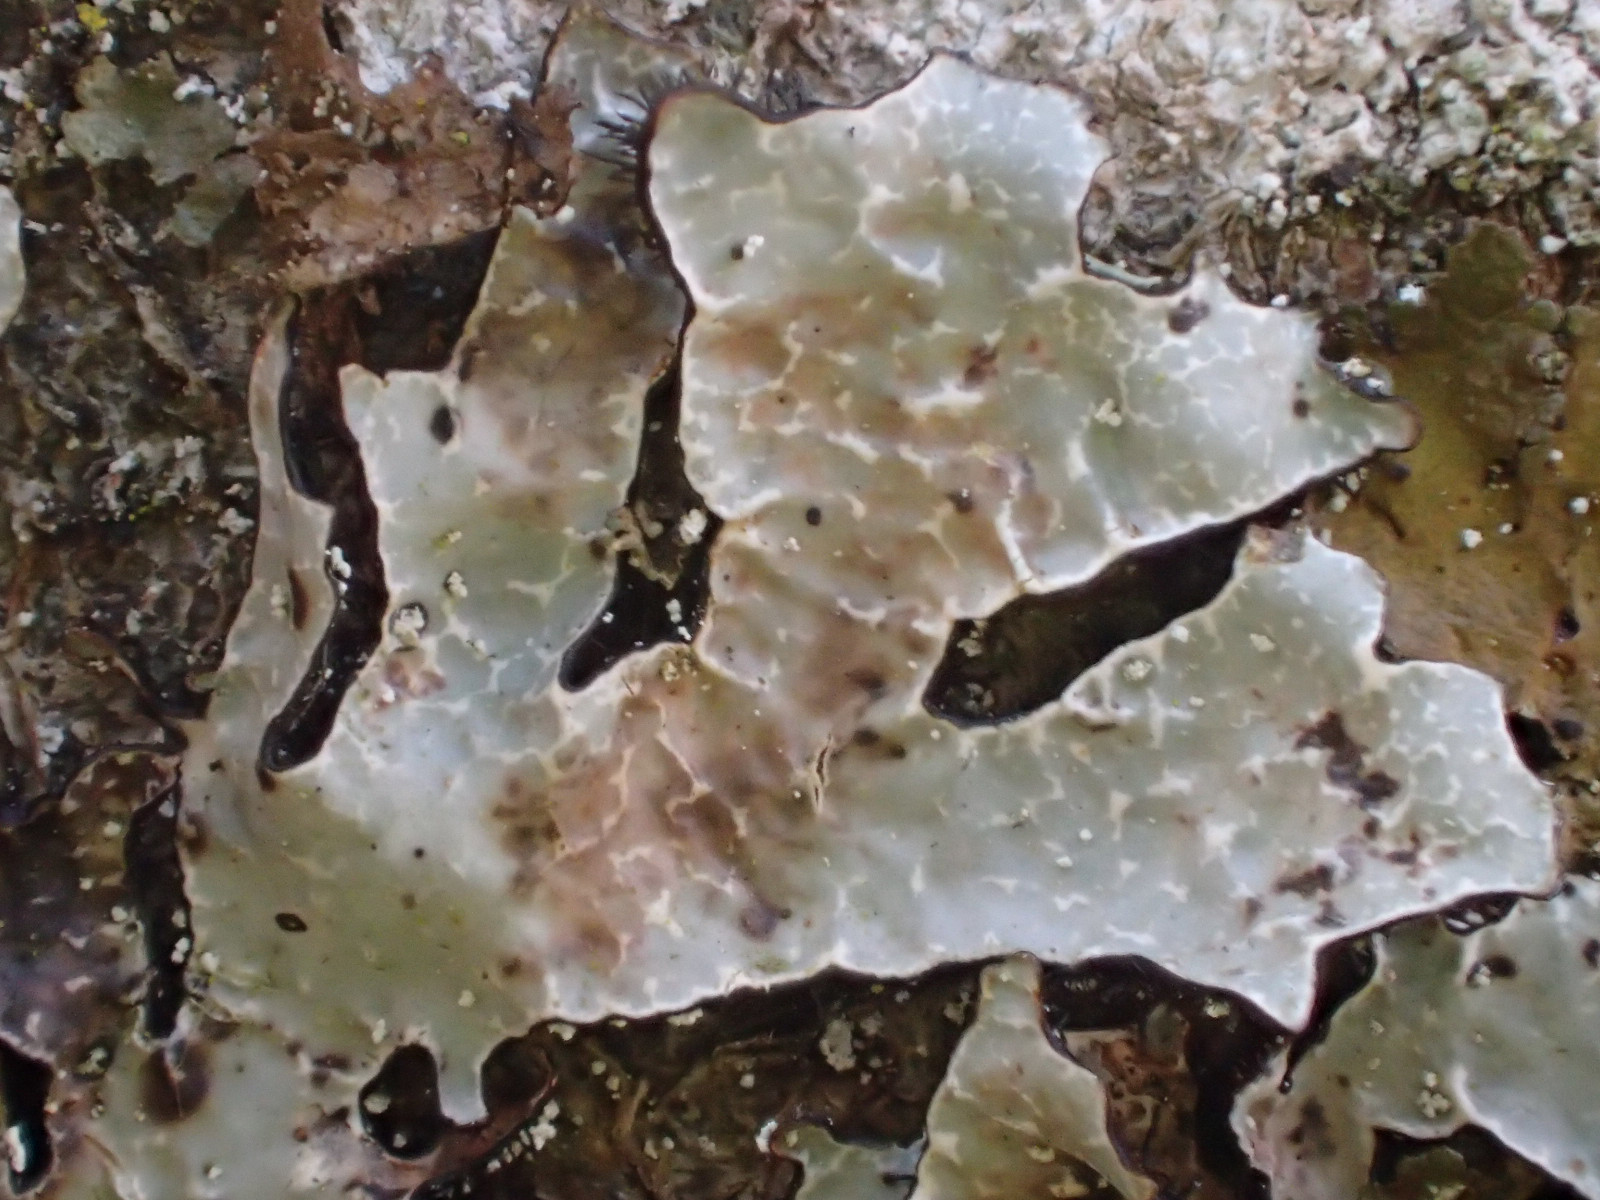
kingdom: Fungi
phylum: Ascomycota
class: Lecanoromycetes
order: Lecanorales
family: Parmeliaceae
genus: Parmelia
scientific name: Parmelia sulcata
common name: rynket skållav
